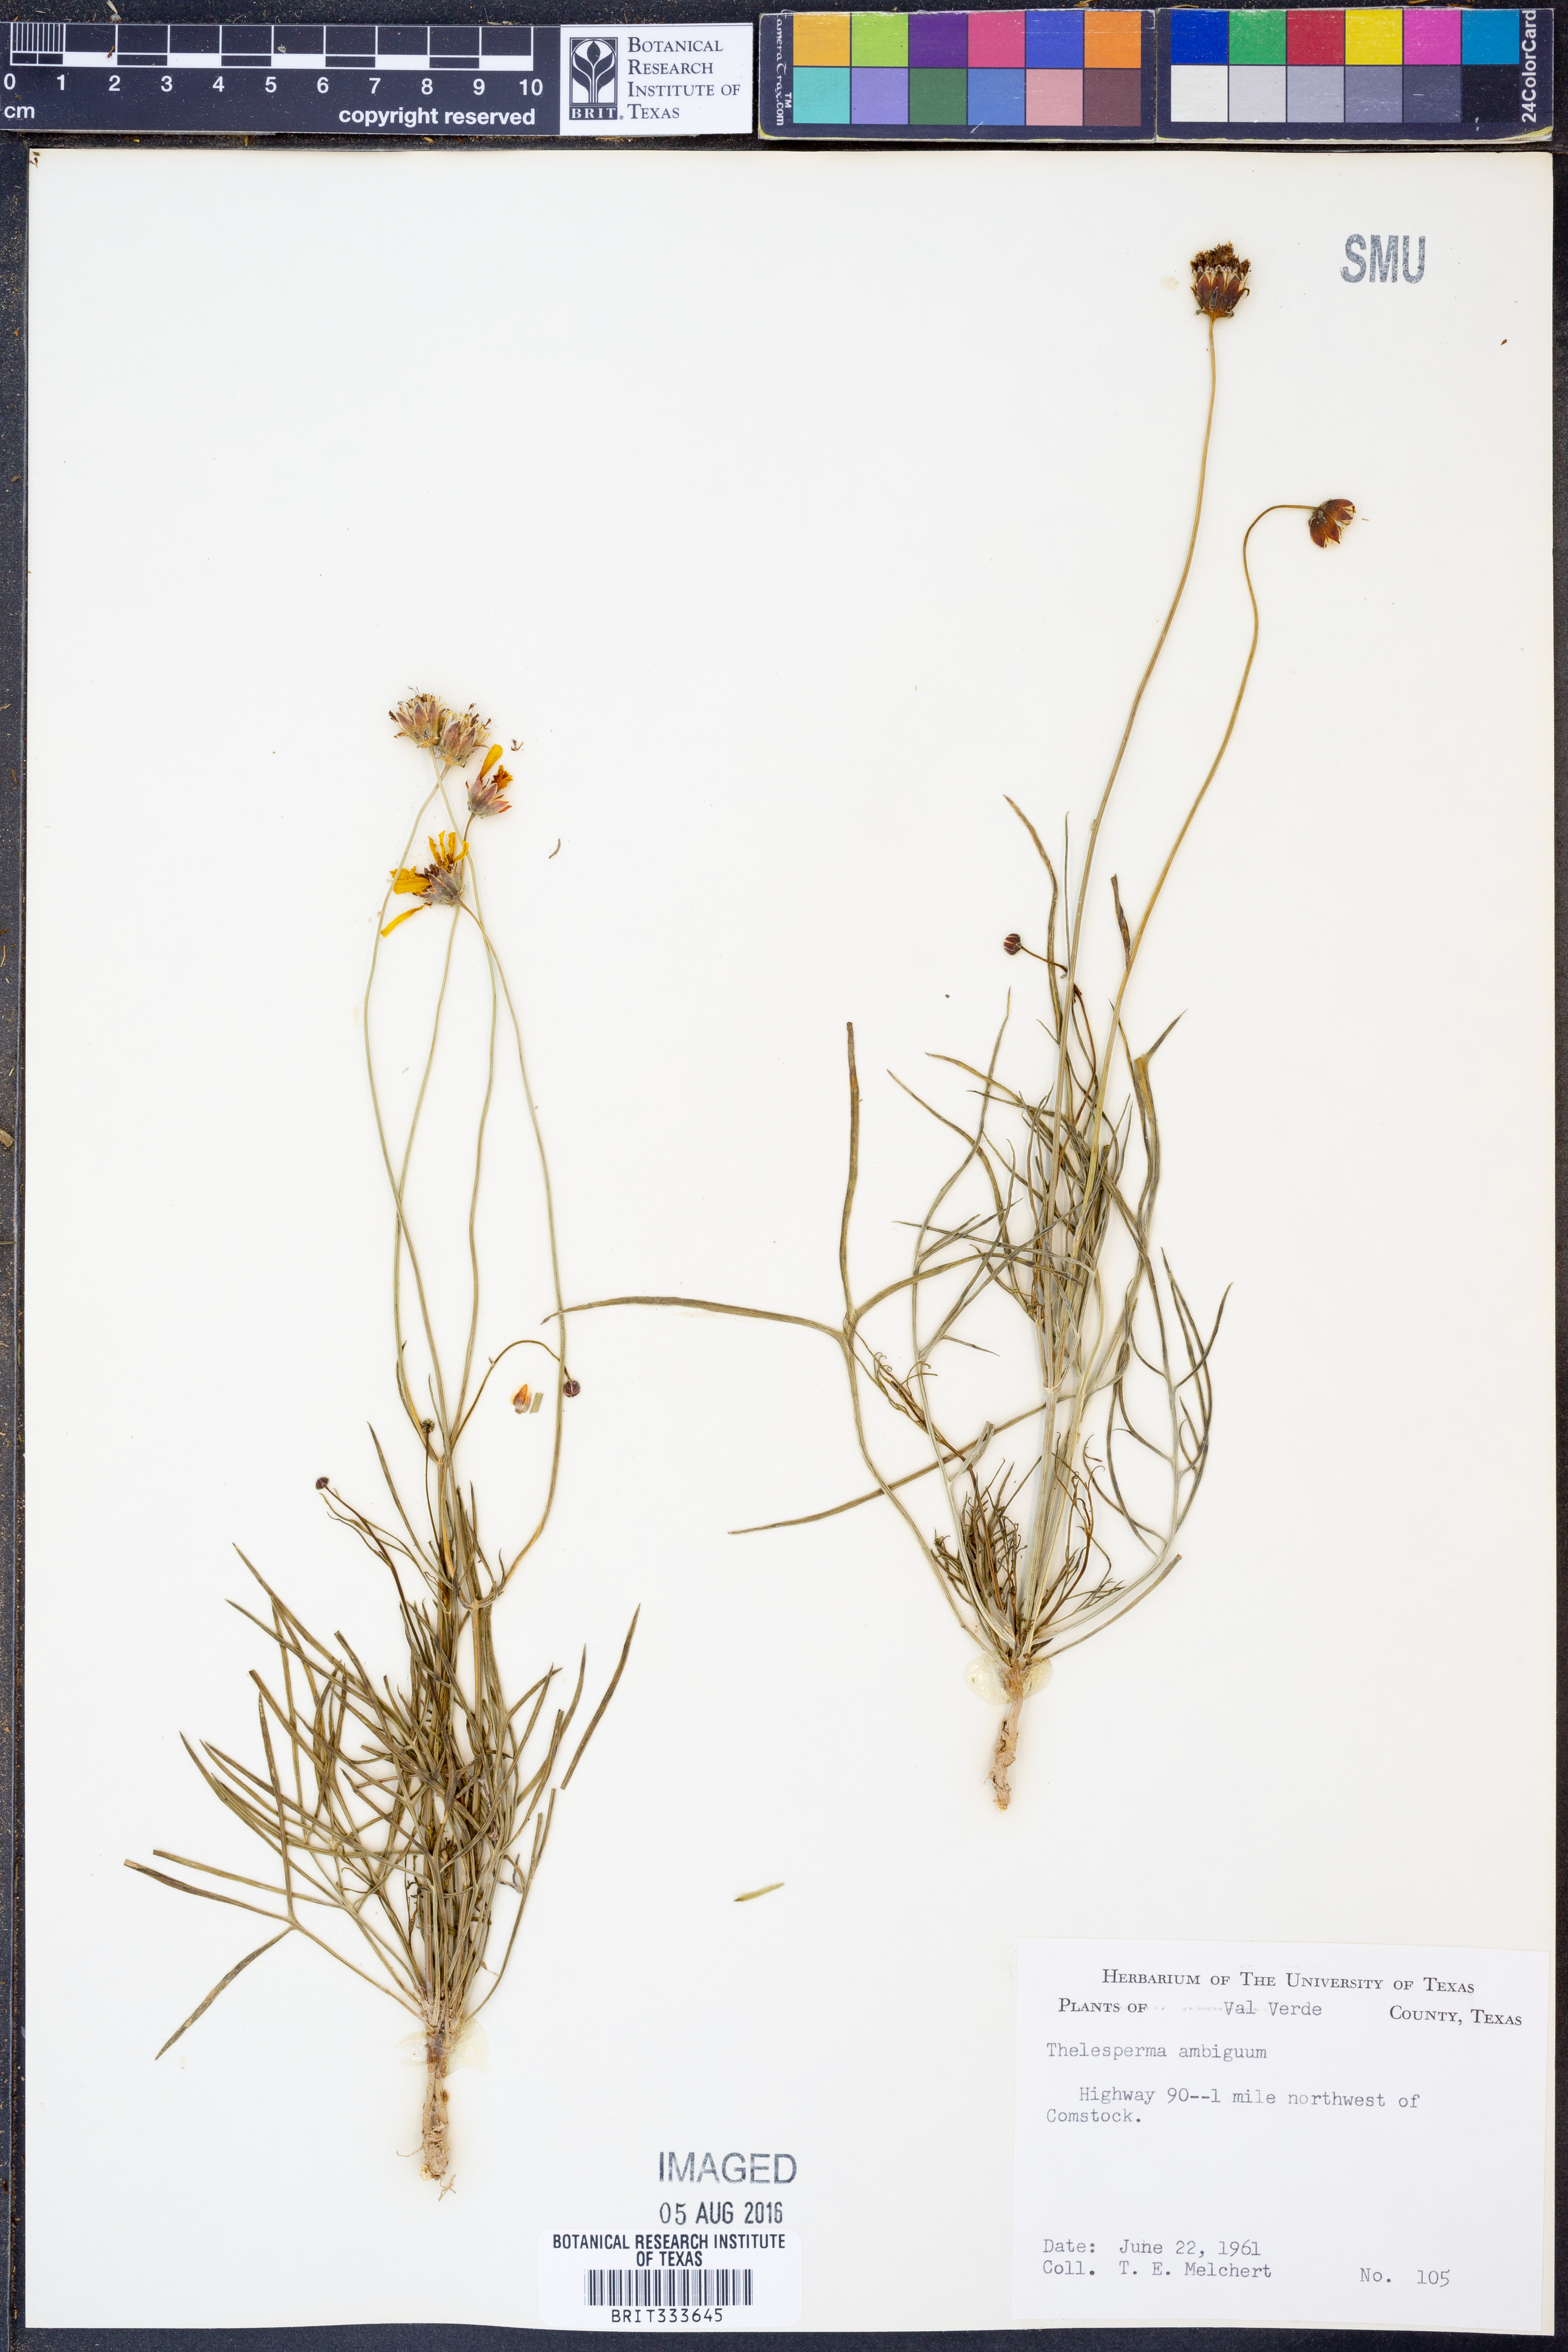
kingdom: Plantae
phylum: Tracheophyta
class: Magnoliopsida
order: Asterales
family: Asteraceae
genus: Thelesperma
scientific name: Thelesperma ambiguum
